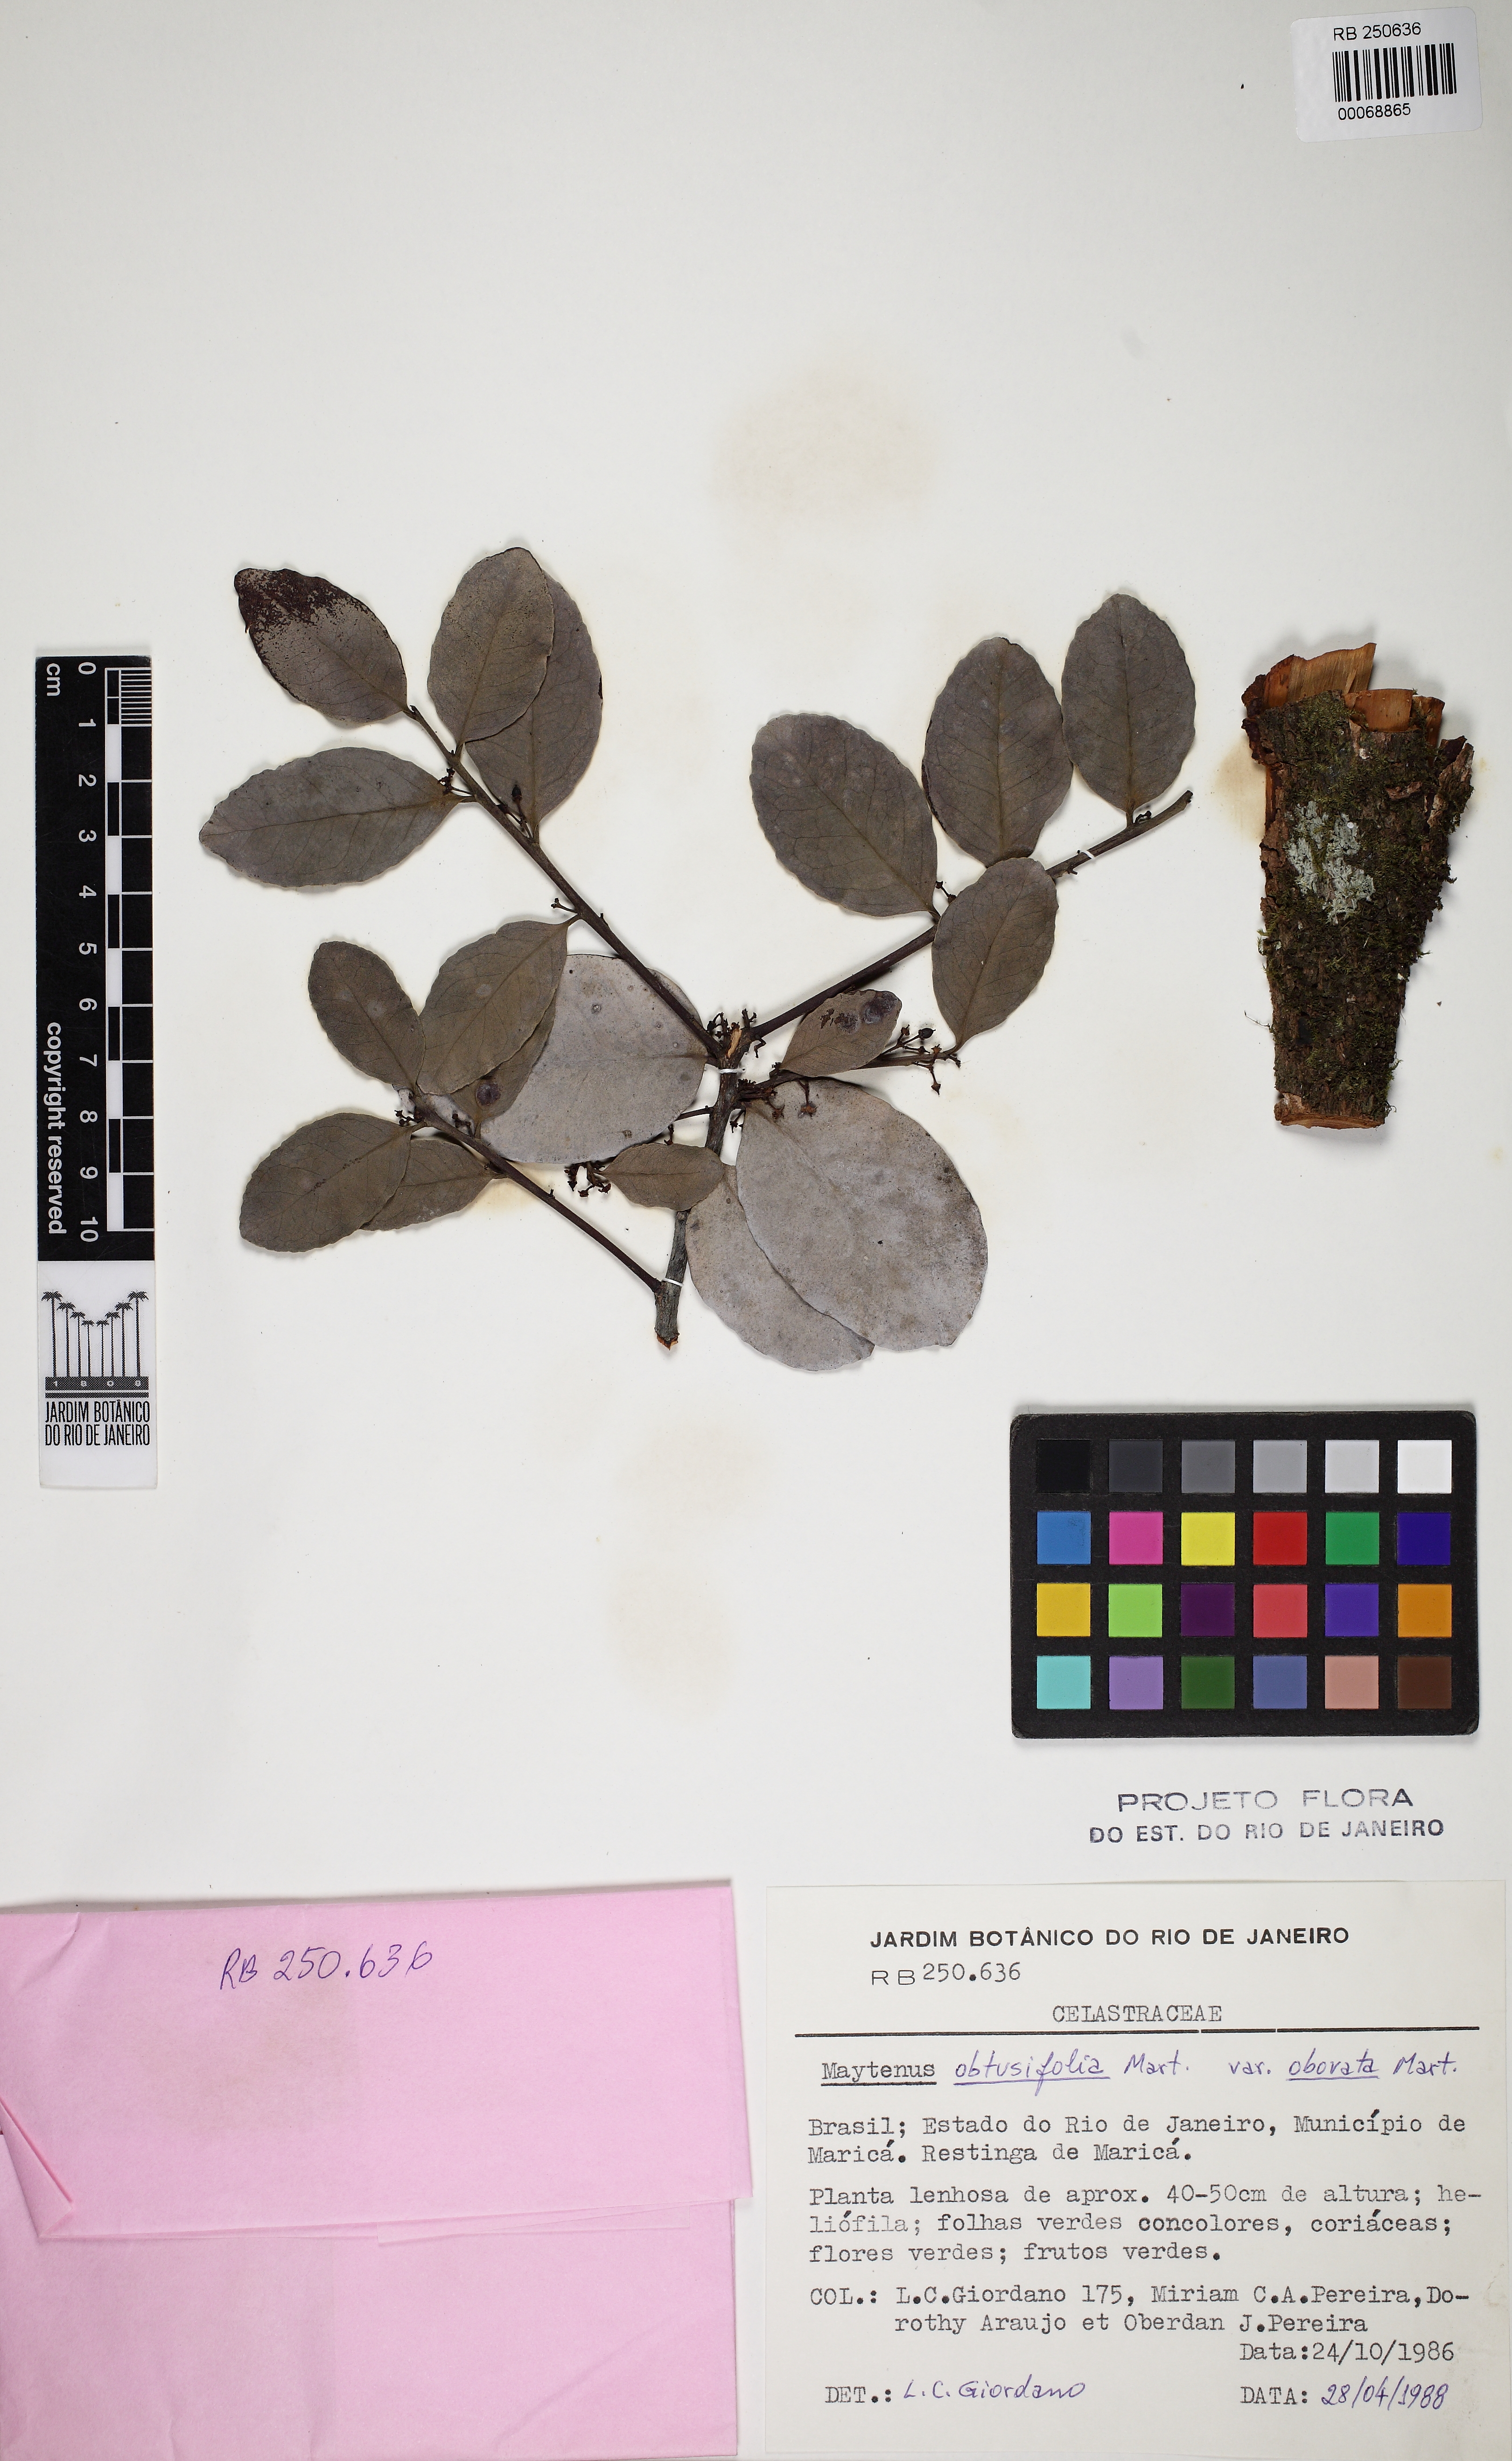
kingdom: Plantae
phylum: Tracheophyta
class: Magnoliopsida
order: Celastrales
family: Celastraceae
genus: Monteverdia
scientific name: Monteverdia obtusifolia
